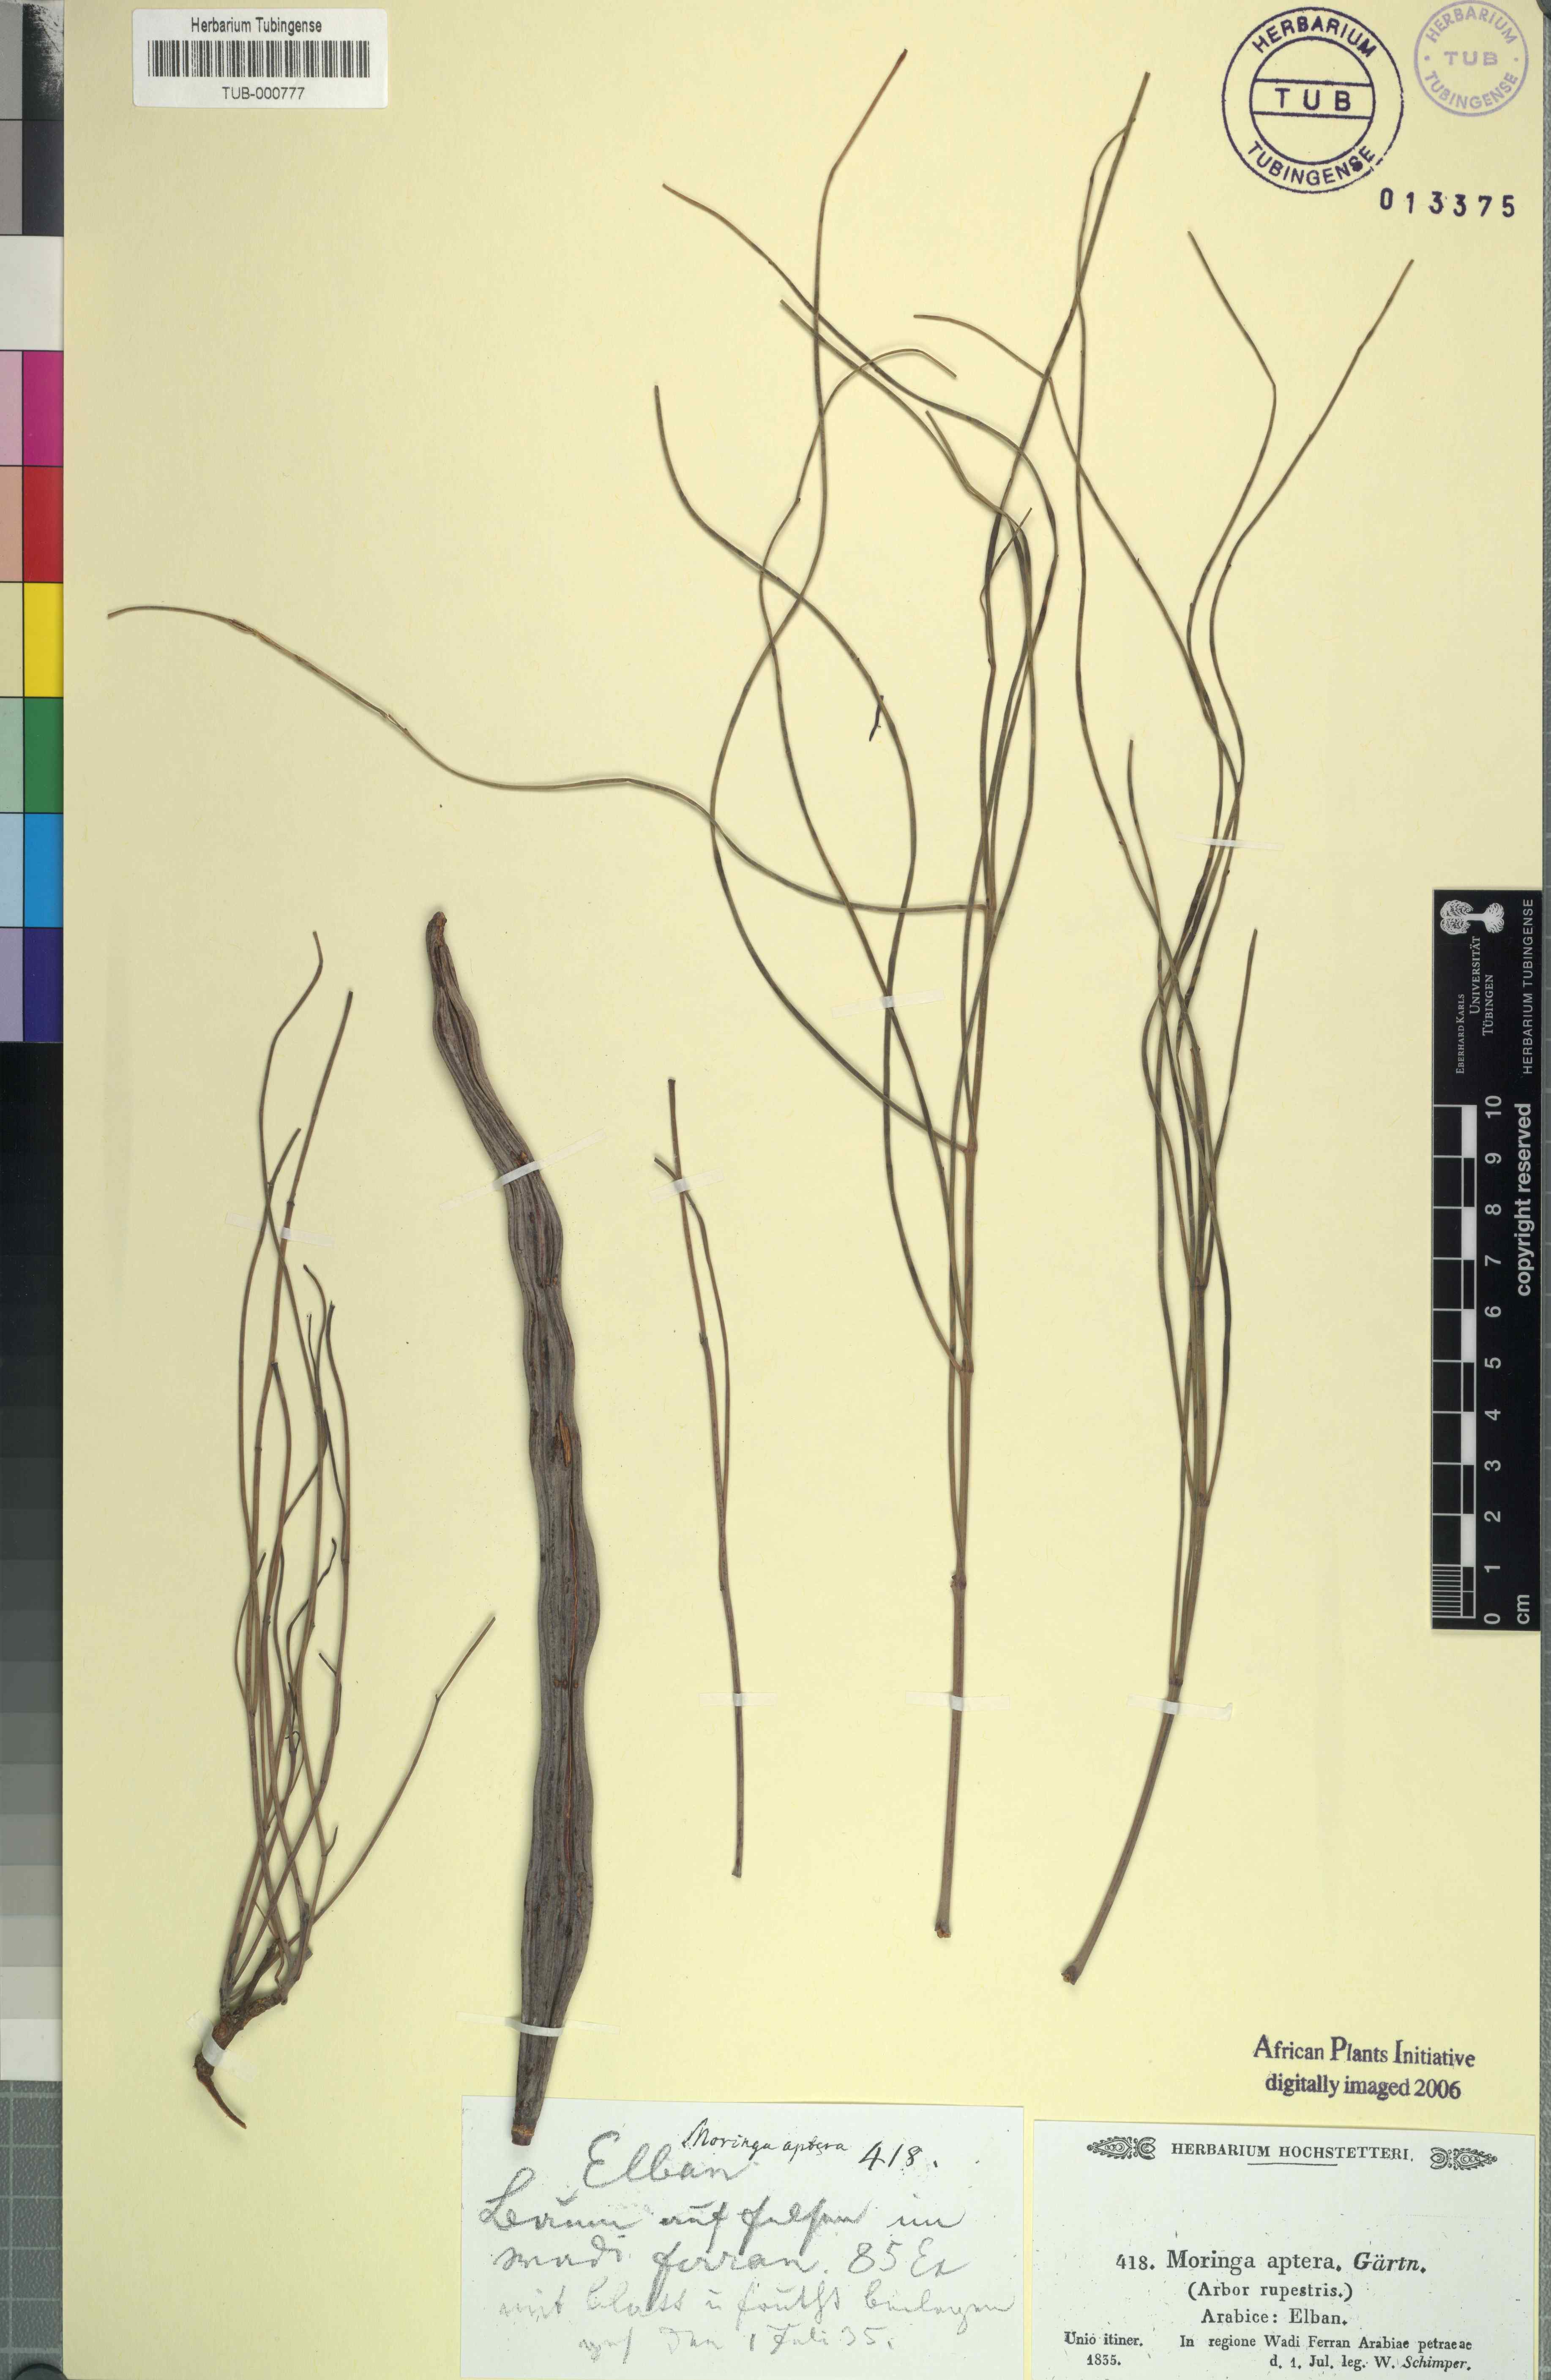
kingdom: Plantae
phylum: Tracheophyta
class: Magnoliopsida
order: Brassicales
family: Moringaceae
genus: Moringa
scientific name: Moringa peregrina
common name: Wild drumstick tree
